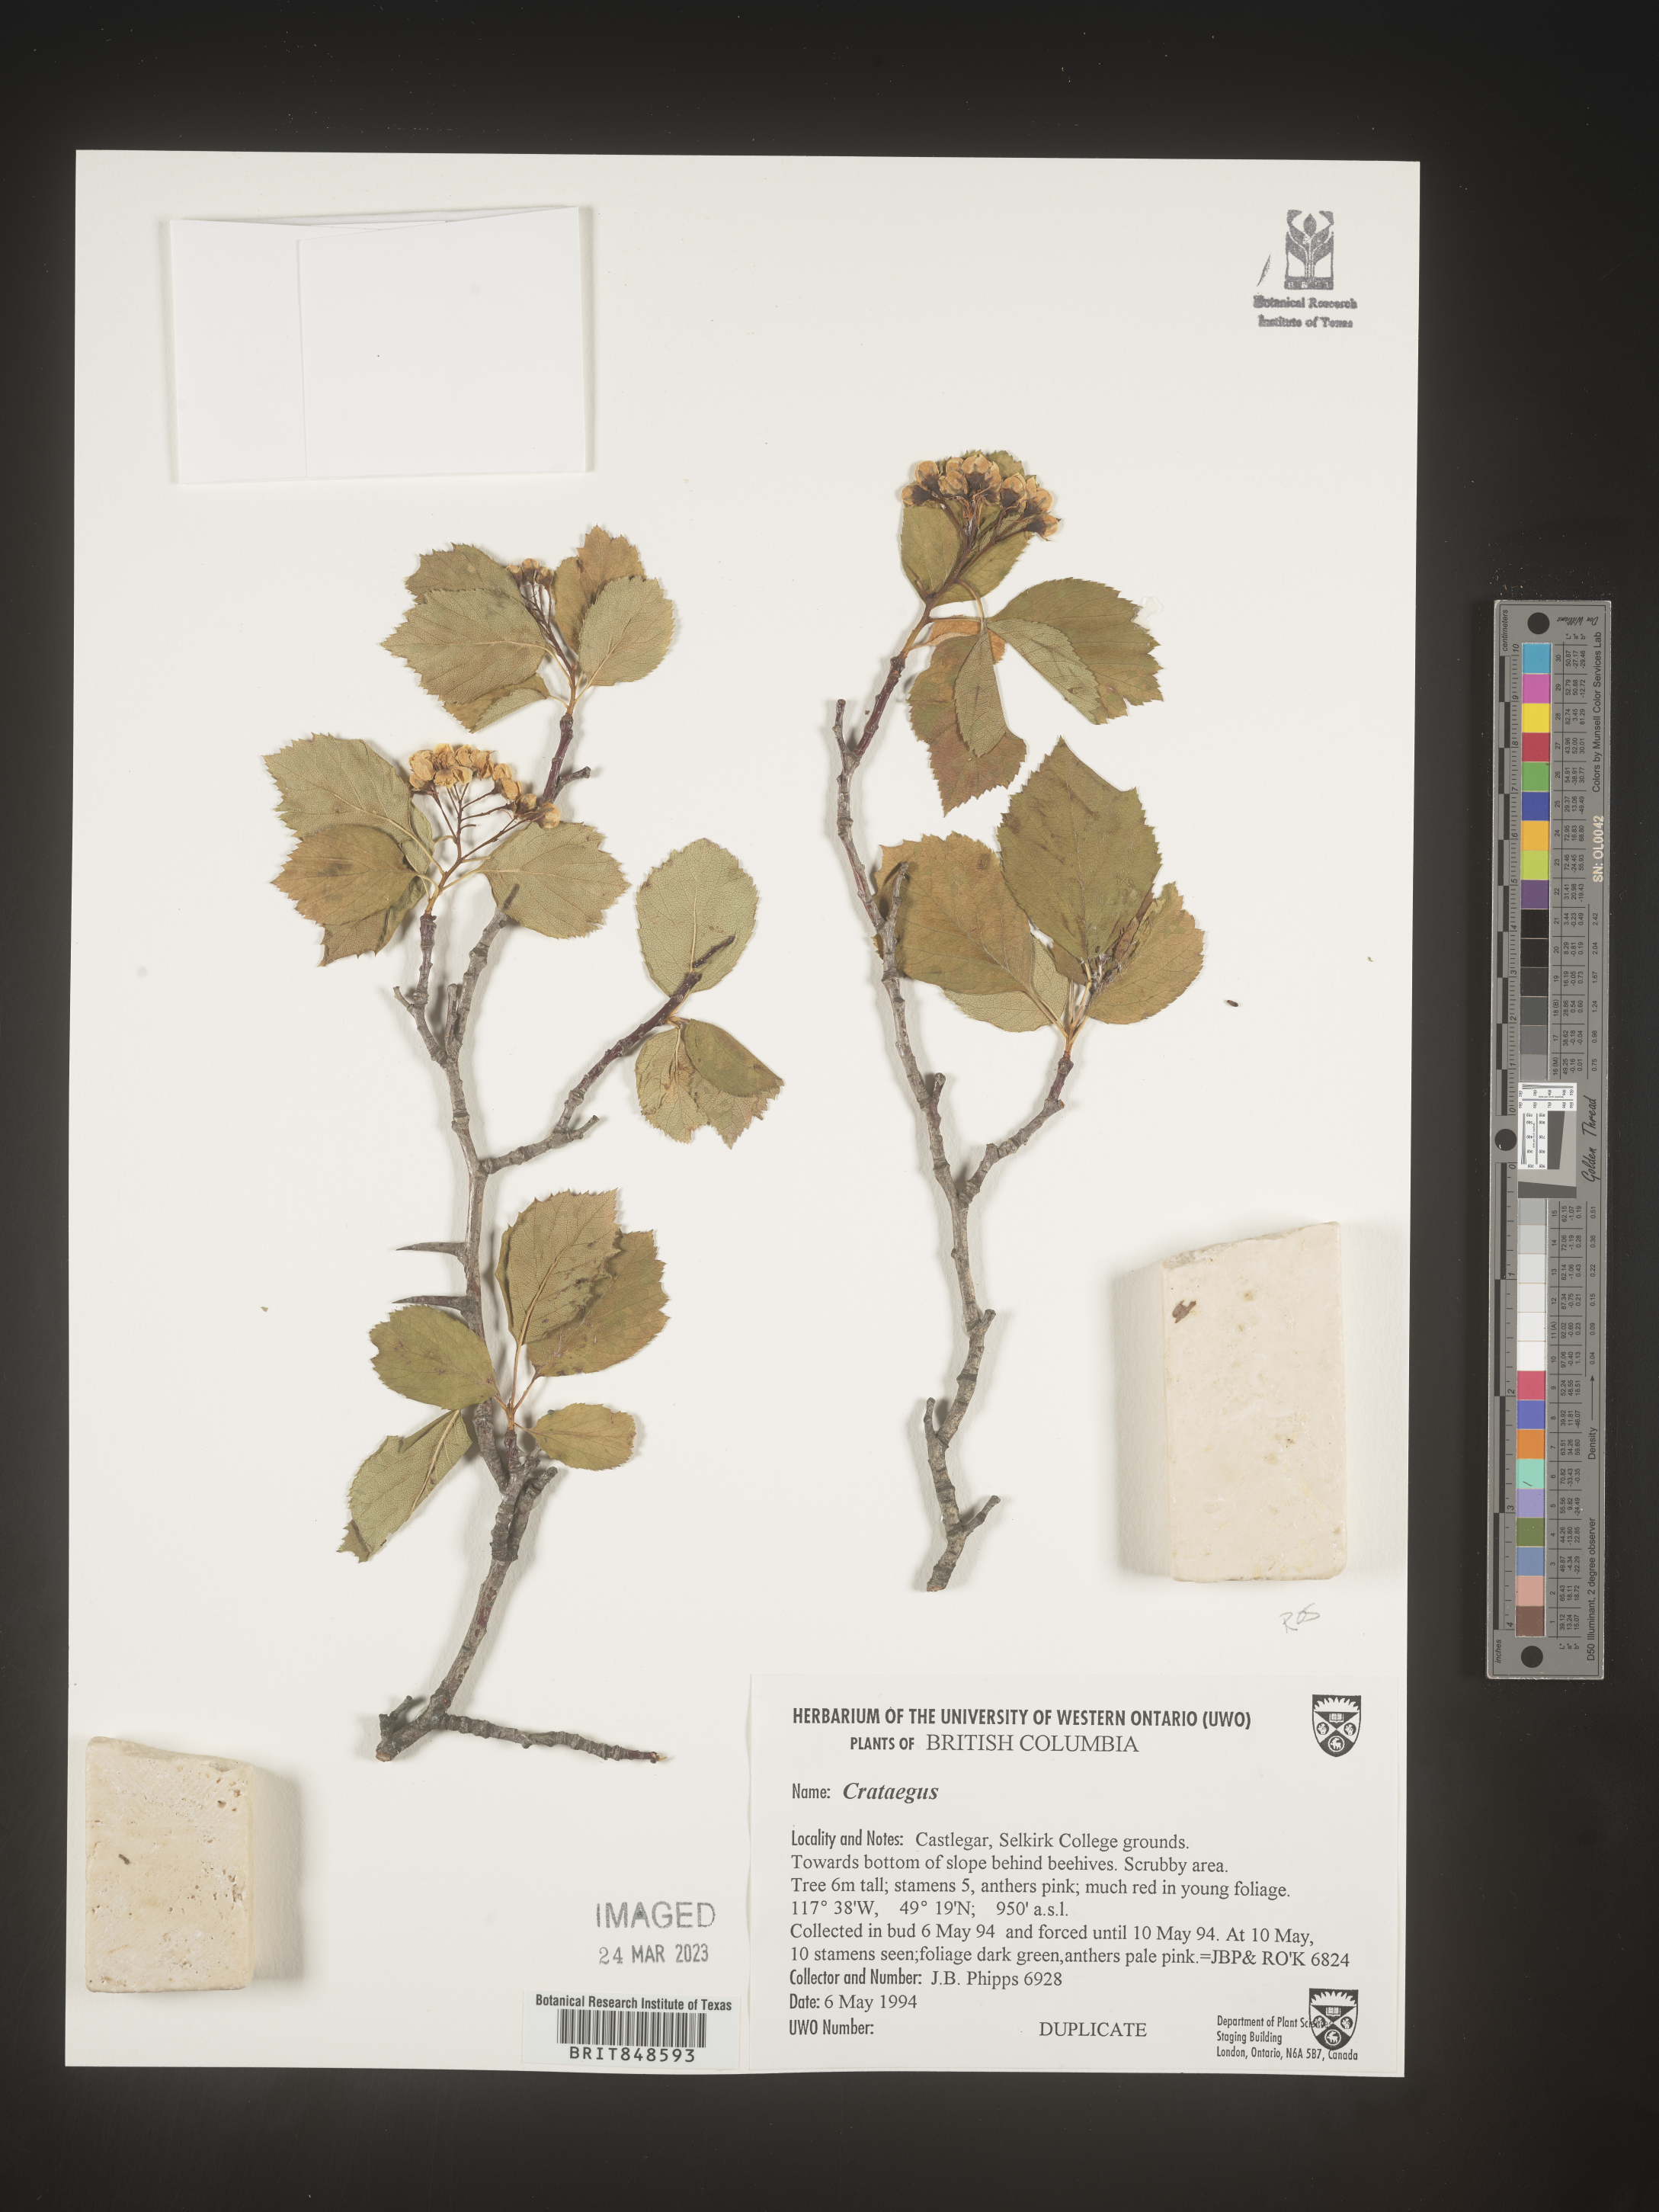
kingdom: Plantae
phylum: Tracheophyta
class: Magnoliopsida
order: Rosales
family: Rosaceae
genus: Crataegus
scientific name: Crataegus williamsii
